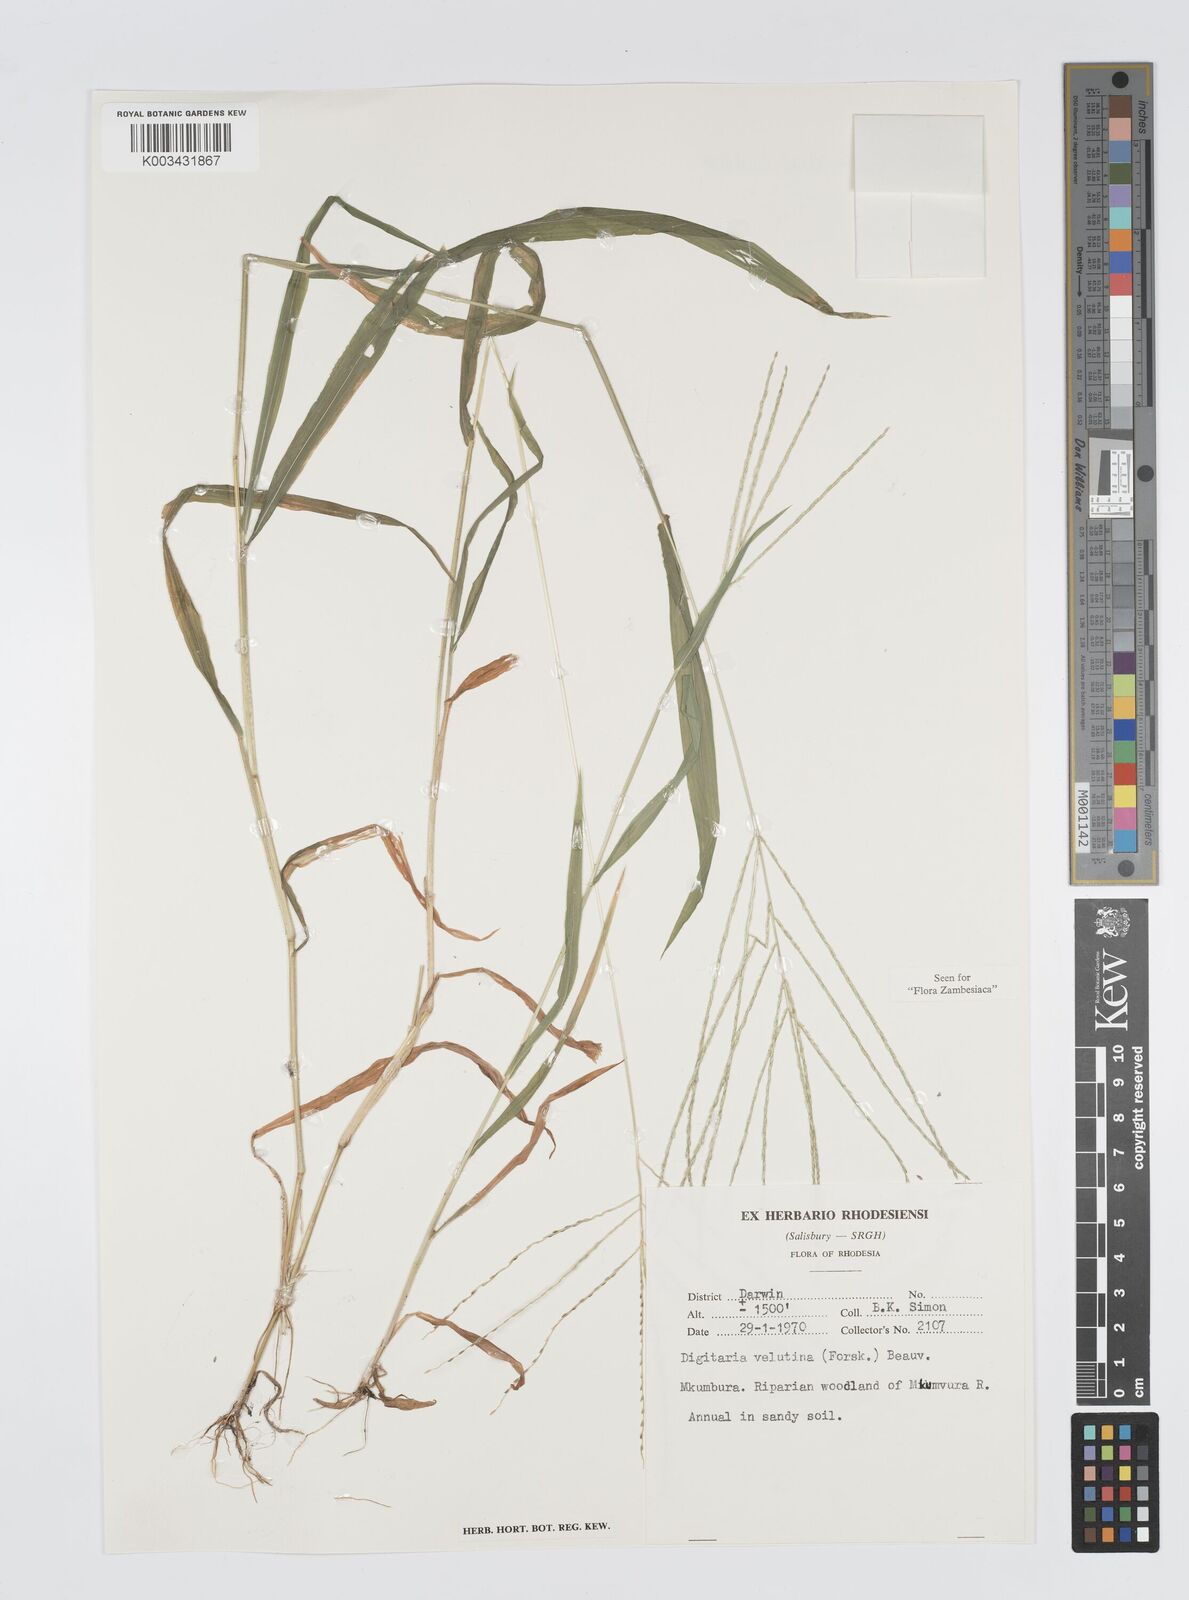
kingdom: Plantae
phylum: Tracheophyta
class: Liliopsida
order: Poales
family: Poaceae
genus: Digitaria
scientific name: Digitaria velutina
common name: Long-plume finger grass
